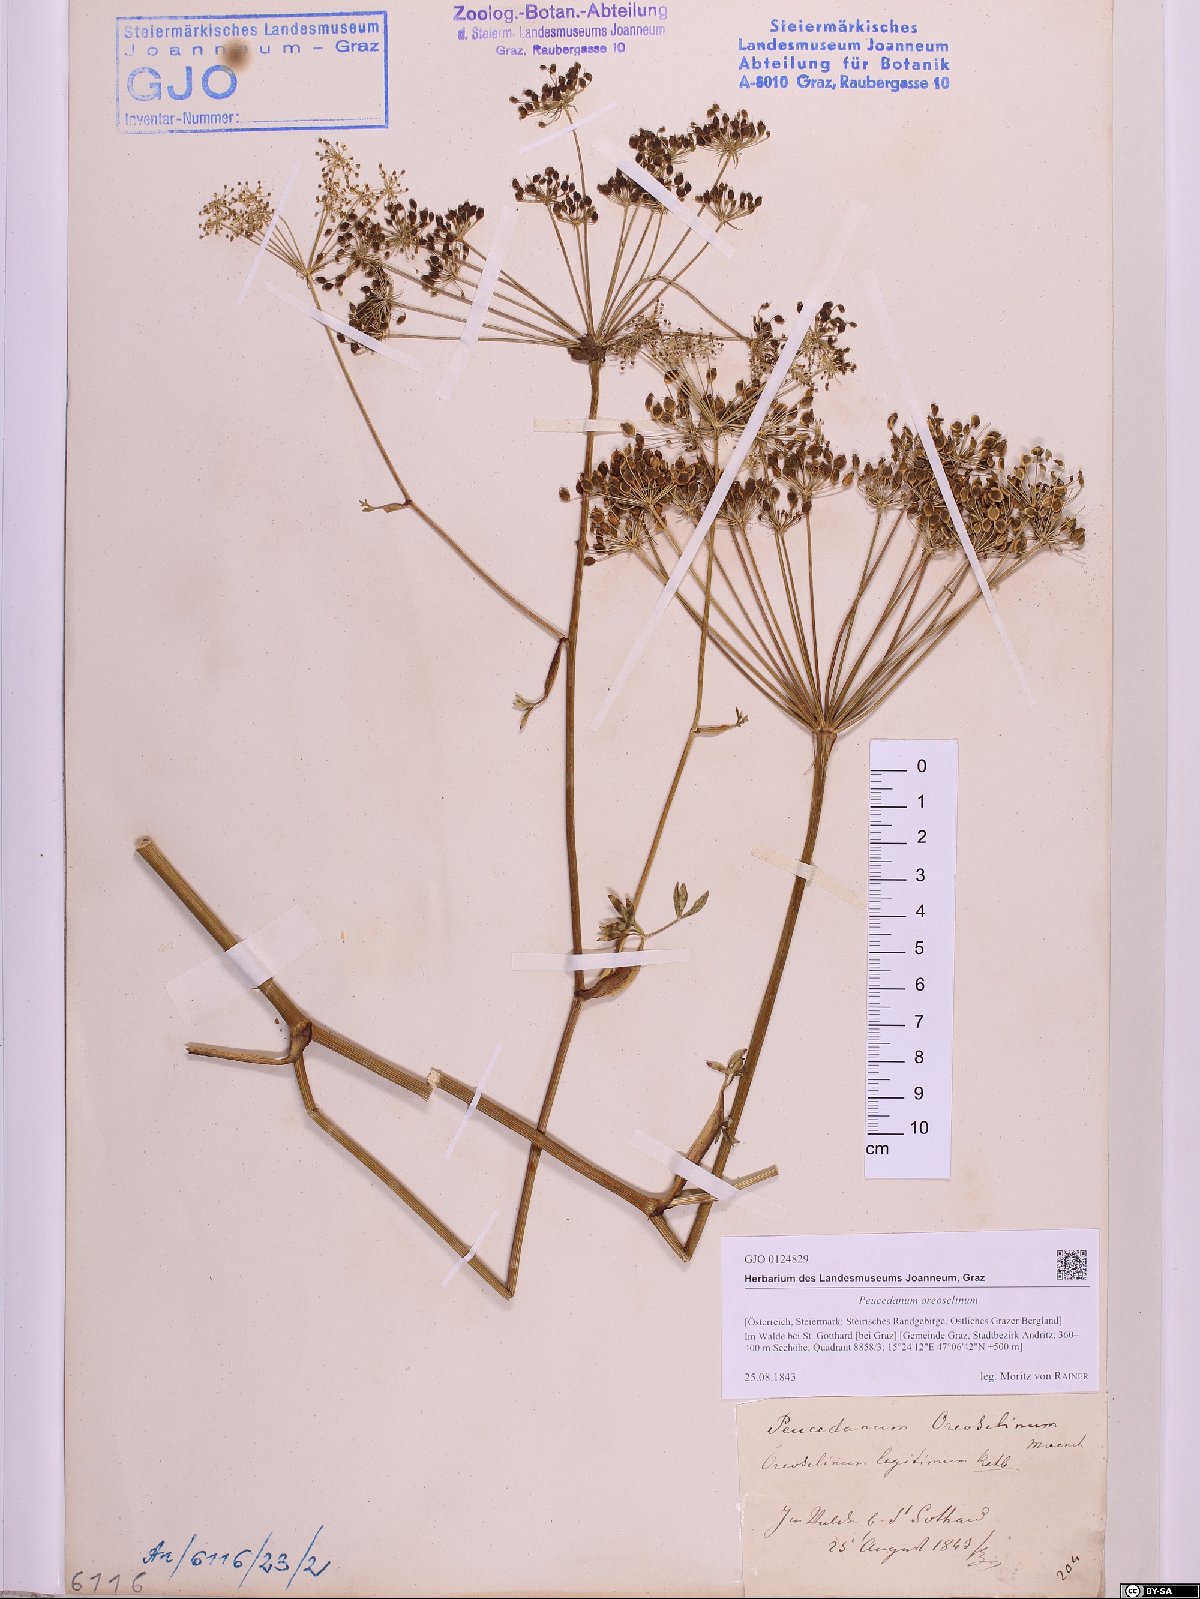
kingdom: Plantae
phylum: Tracheophyta
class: Magnoliopsida
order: Apiales
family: Apiaceae
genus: Oreoselinum
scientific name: Oreoselinum nigrum
